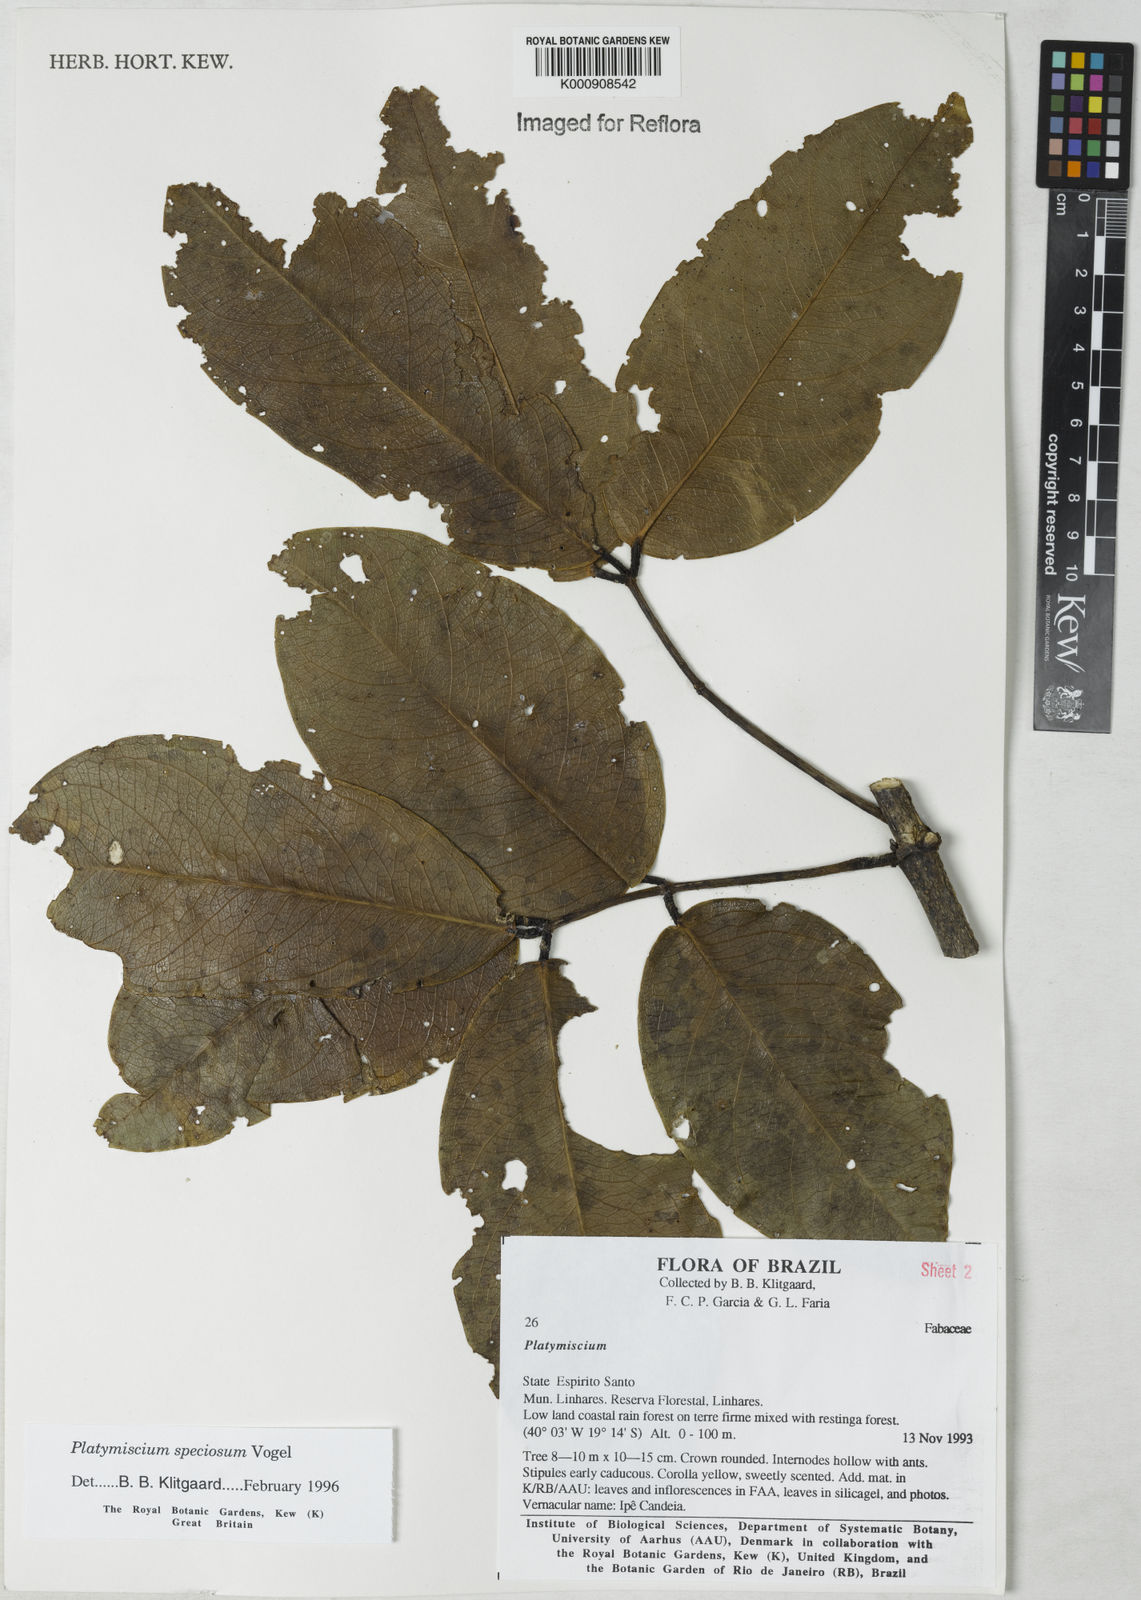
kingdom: Plantae
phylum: Tracheophyta
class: Magnoliopsida
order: Fabales
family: Fabaceae
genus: Platymiscium
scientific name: Platymiscium speciosum
